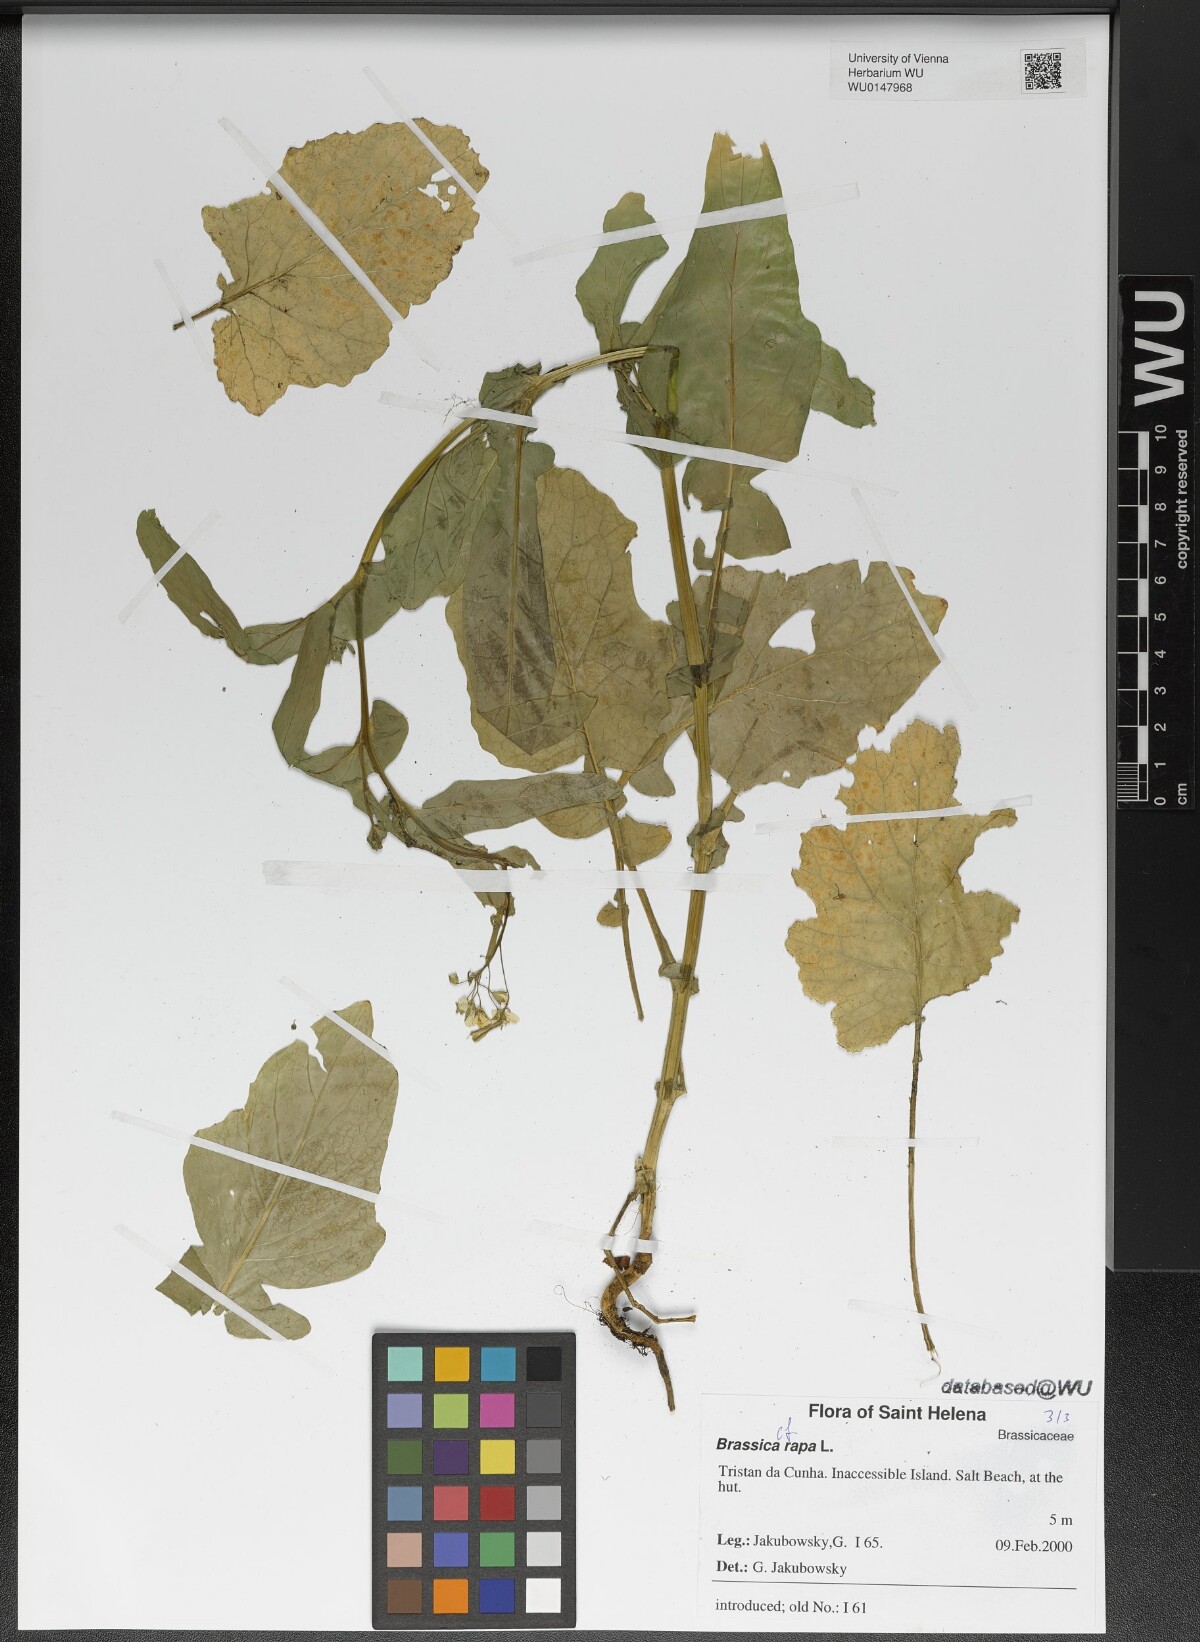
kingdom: Plantae
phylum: Tracheophyta
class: Magnoliopsida
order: Brassicales
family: Brassicaceae
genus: Brassica
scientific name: Brassica rapa
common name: Field mustard
